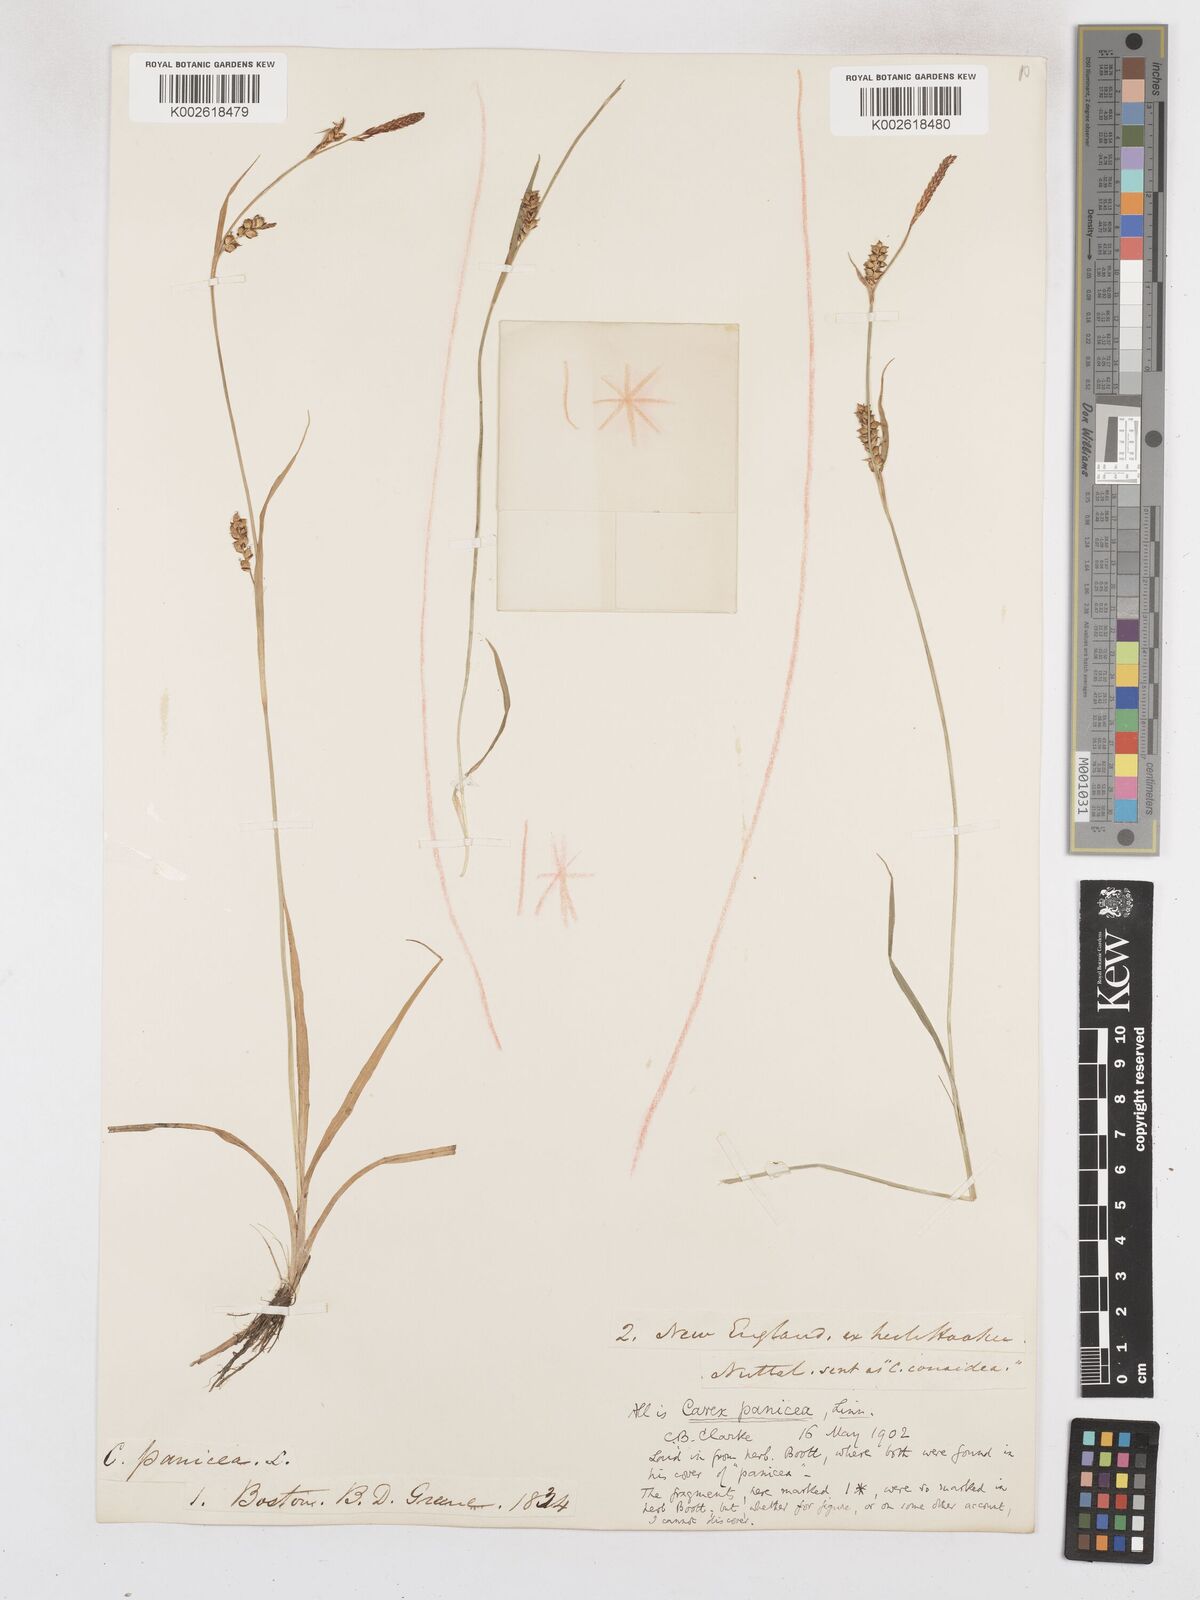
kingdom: Plantae
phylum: Tracheophyta
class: Liliopsida
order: Poales
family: Cyperaceae
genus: Carex
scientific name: Carex panicea
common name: Carnation sedge
